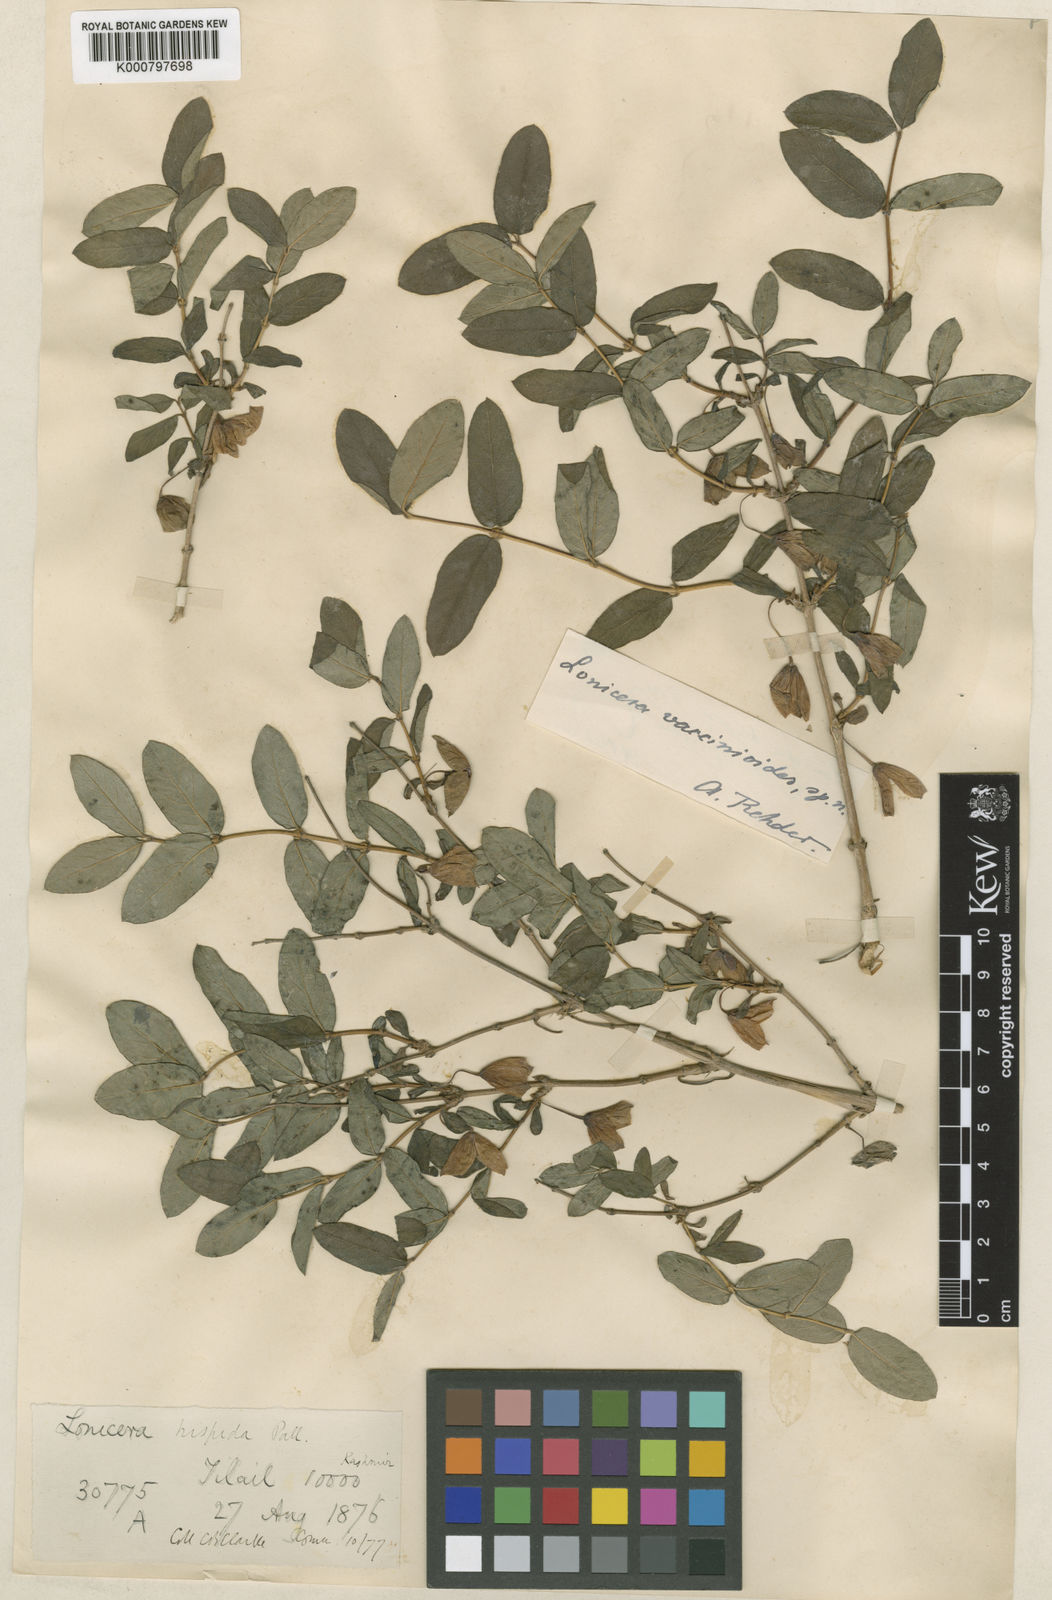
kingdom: Plantae
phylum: Tracheophyta
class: Magnoliopsida
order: Dipsacales
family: Caprifoliaceae
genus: Lonicera
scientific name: Lonicera hispida
